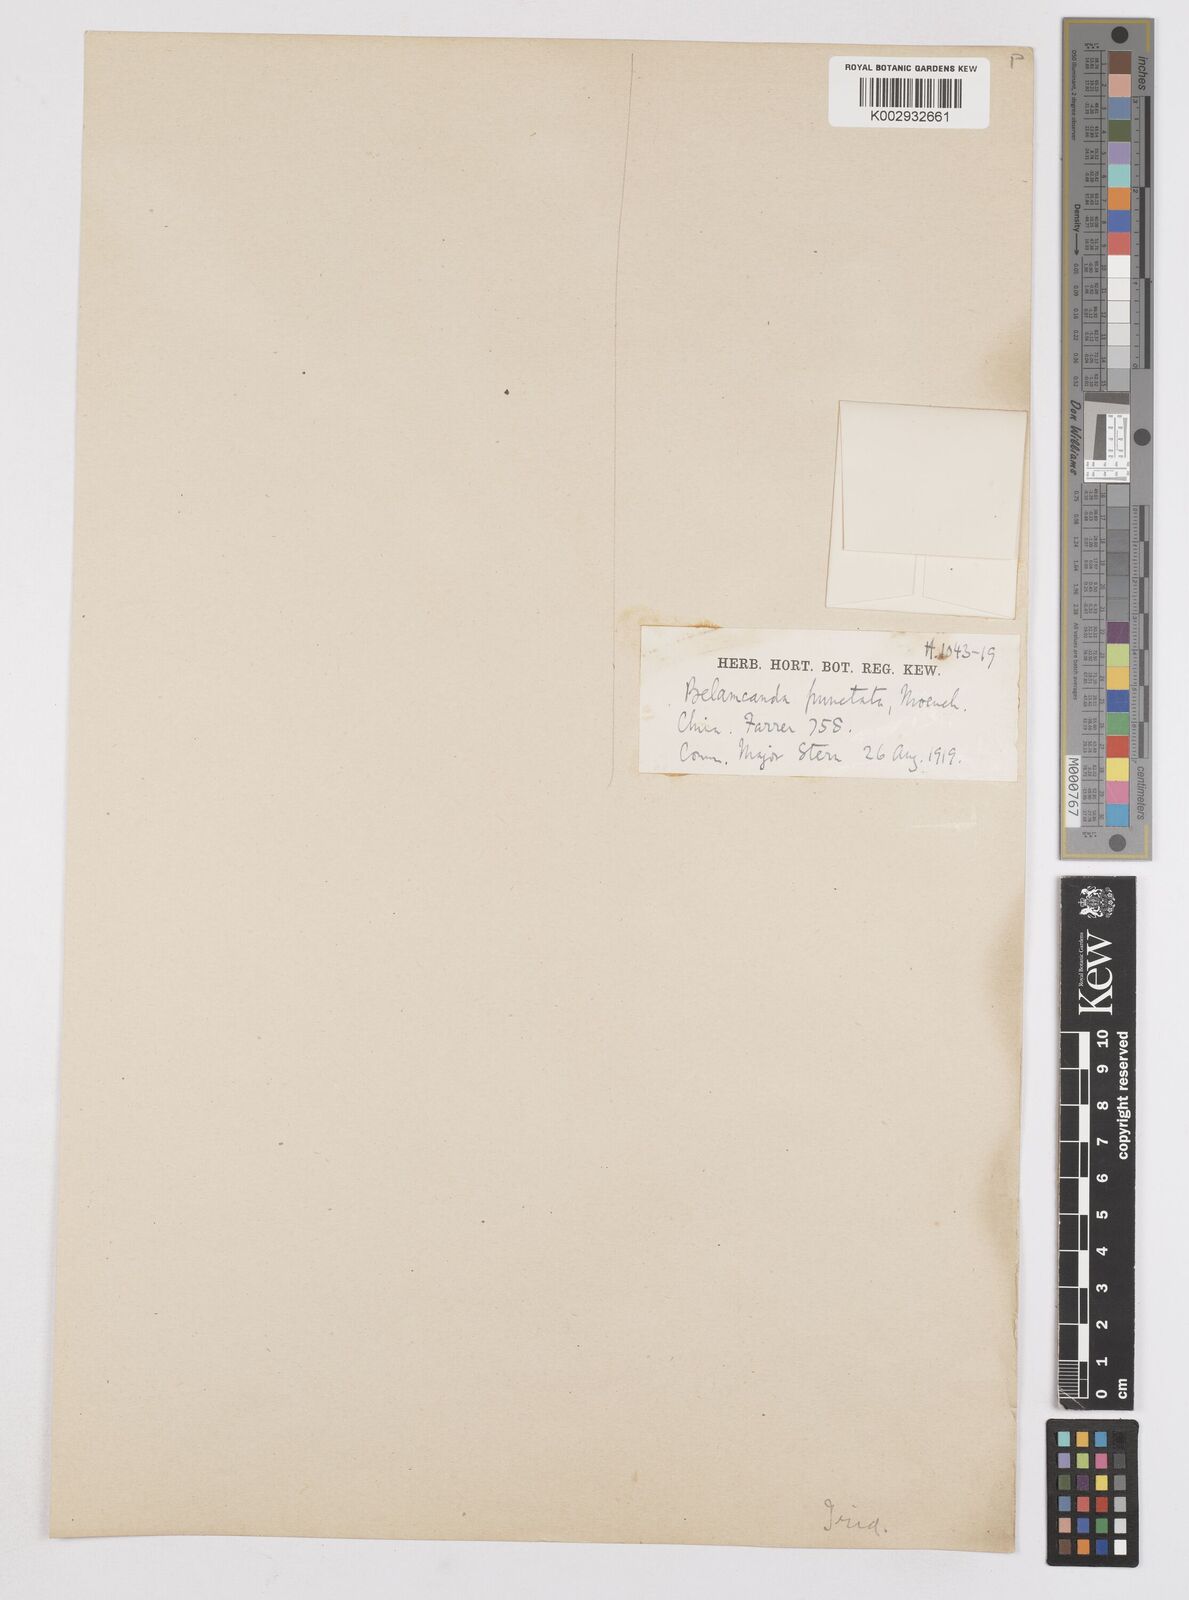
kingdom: Plantae
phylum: Tracheophyta
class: Liliopsida
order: Asparagales
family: Iridaceae
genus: Iris
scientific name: Iris
